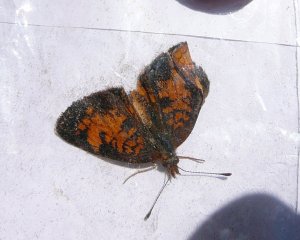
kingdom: Animalia
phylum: Arthropoda
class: Insecta
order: Lepidoptera
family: Nymphalidae
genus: Phyciodes
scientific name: Phyciodes tharos
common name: Northern Crescent
